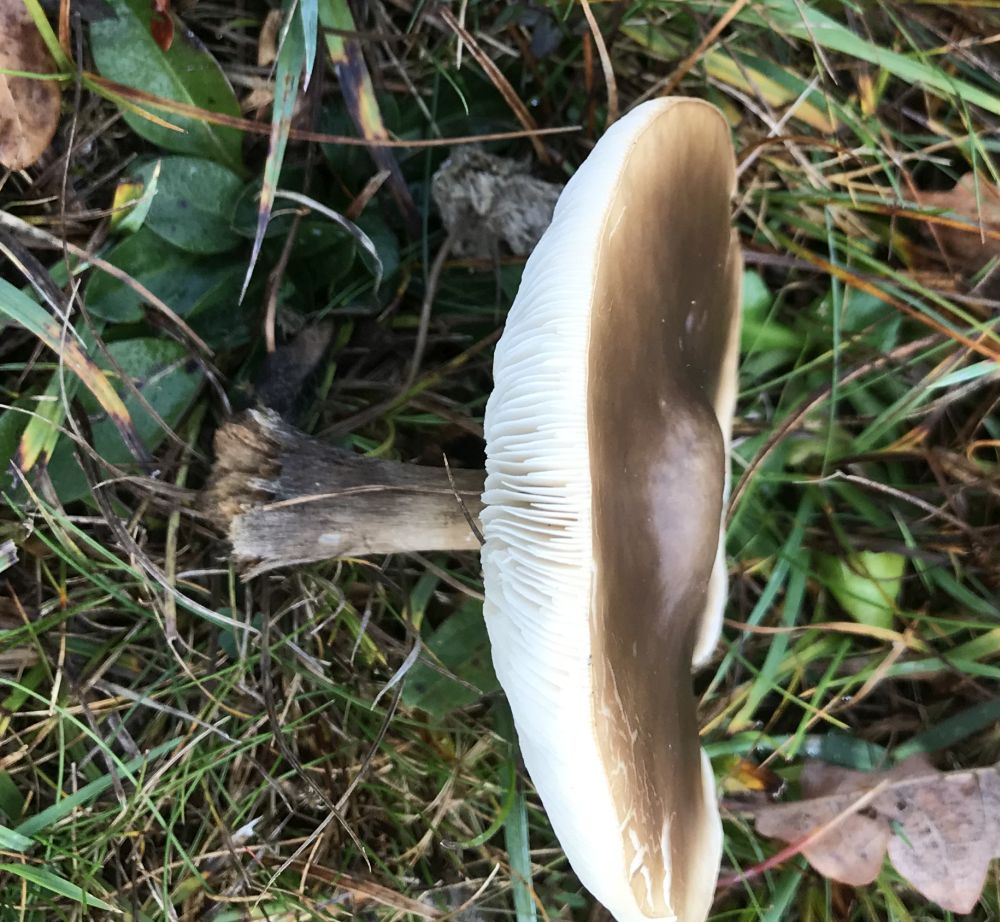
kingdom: Fungi
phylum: Basidiomycota
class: Agaricomycetes
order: Agaricales
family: Tricholomataceae
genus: Melanoleuca
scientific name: Melanoleuca
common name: munkehat
